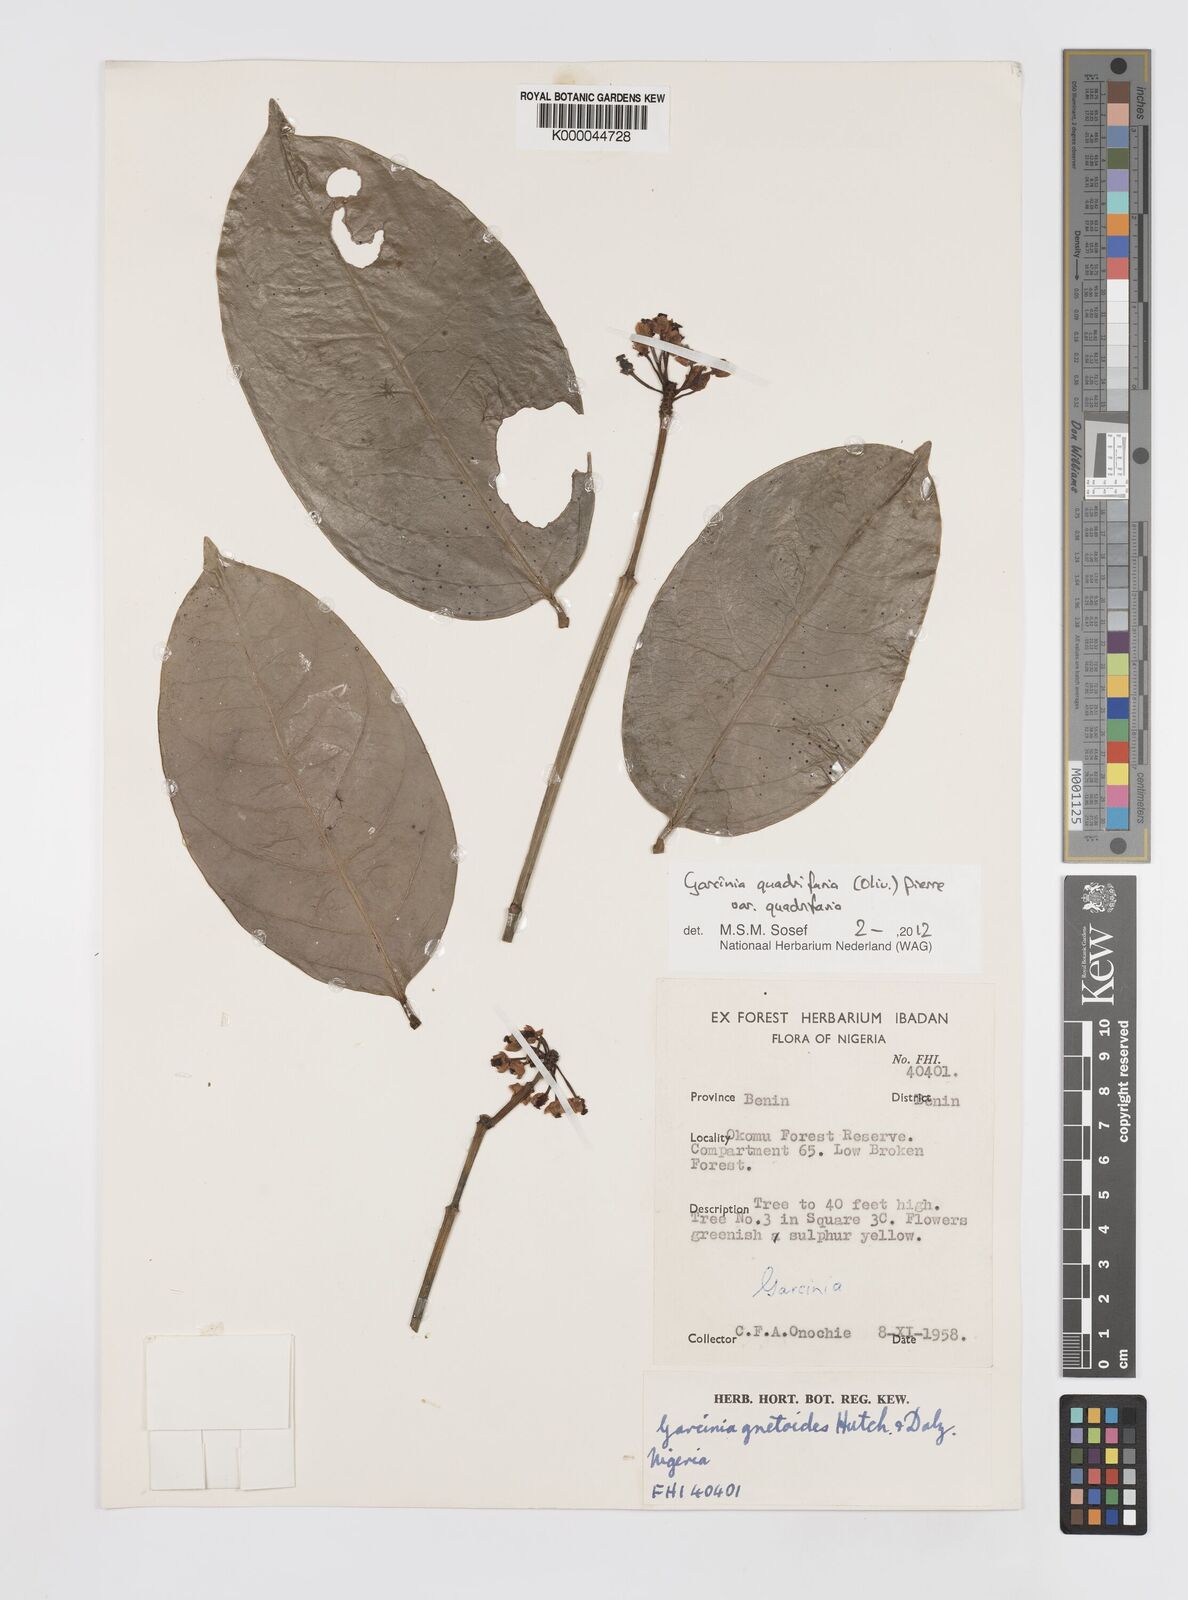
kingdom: Plantae
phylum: Tracheophyta
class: Magnoliopsida
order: Malpighiales
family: Clusiaceae
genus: Garcinia
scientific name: Garcinia gnetoides
